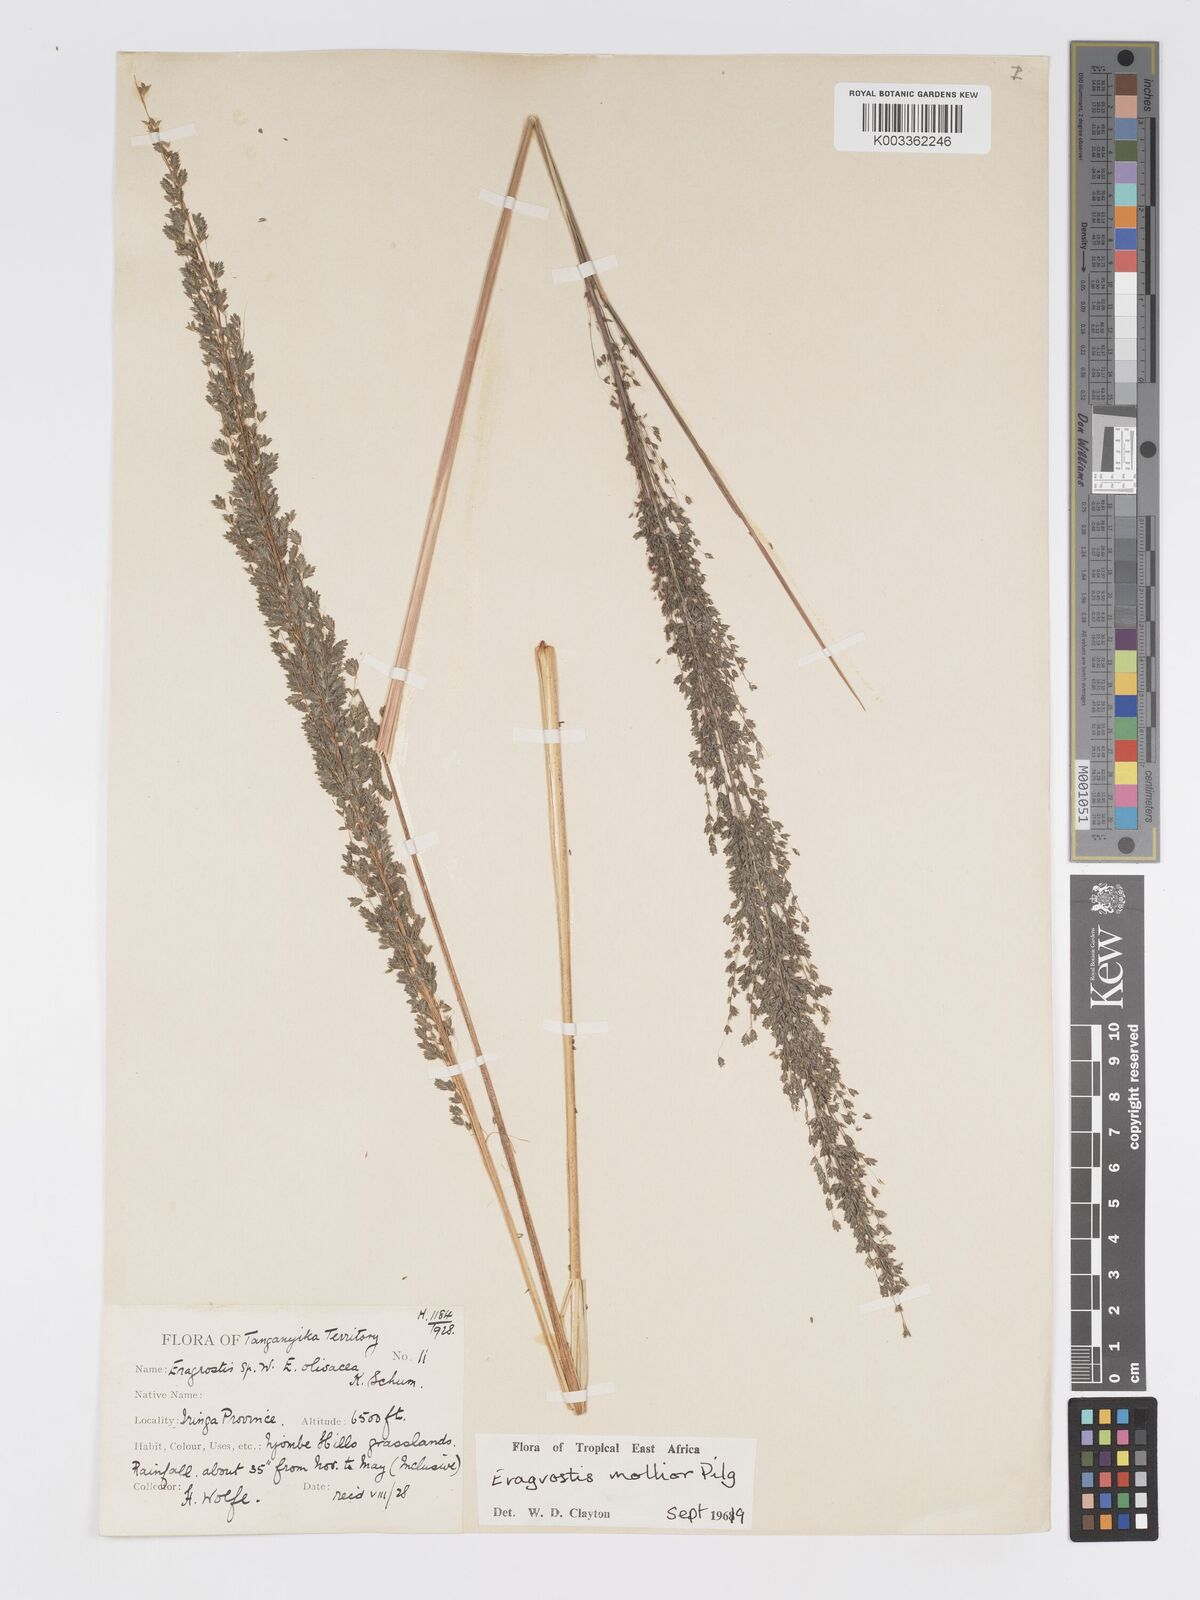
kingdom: Plantae
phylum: Tracheophyta
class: Liliopsida
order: Poales
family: Poaceae
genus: Eragrostis
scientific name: Eragrostis mollior
